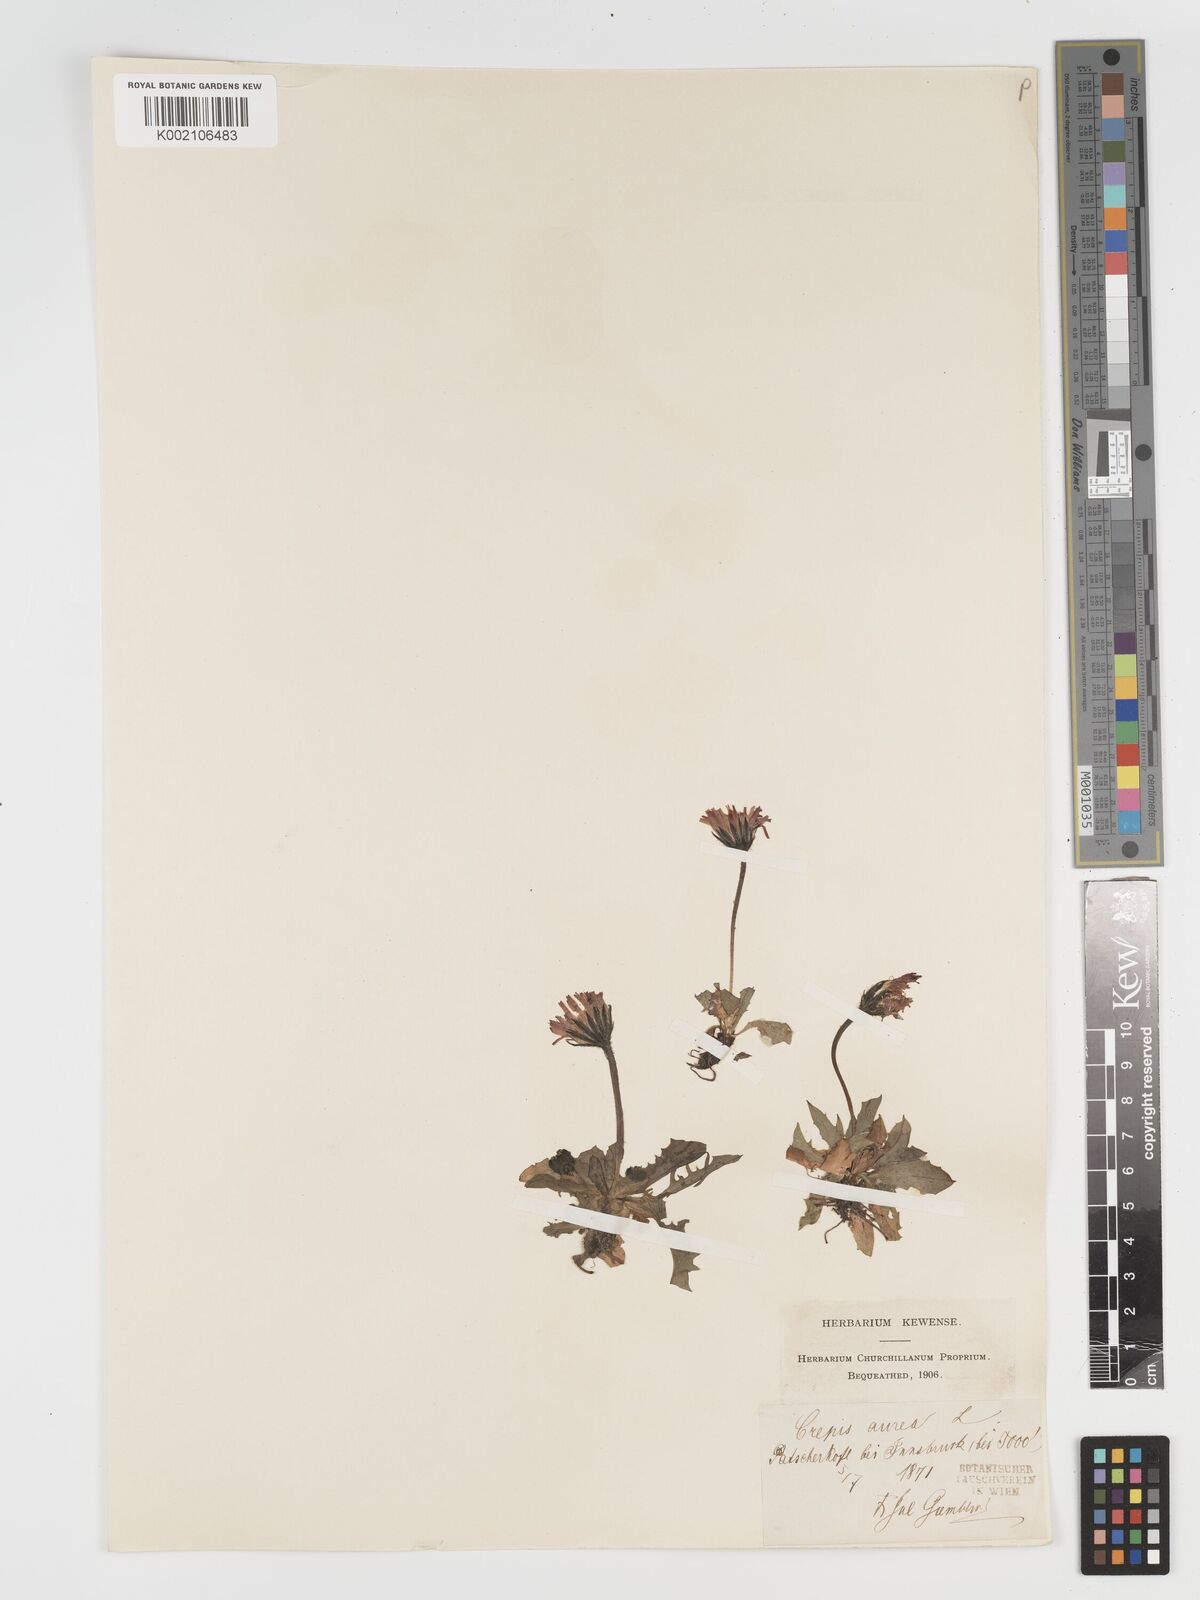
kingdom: Plantae
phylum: Tracheophyta
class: Magnoliopsida
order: Asterales
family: Asteraceae
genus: Crepis
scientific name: Crepis aurea
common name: Golden hawk's-beard
